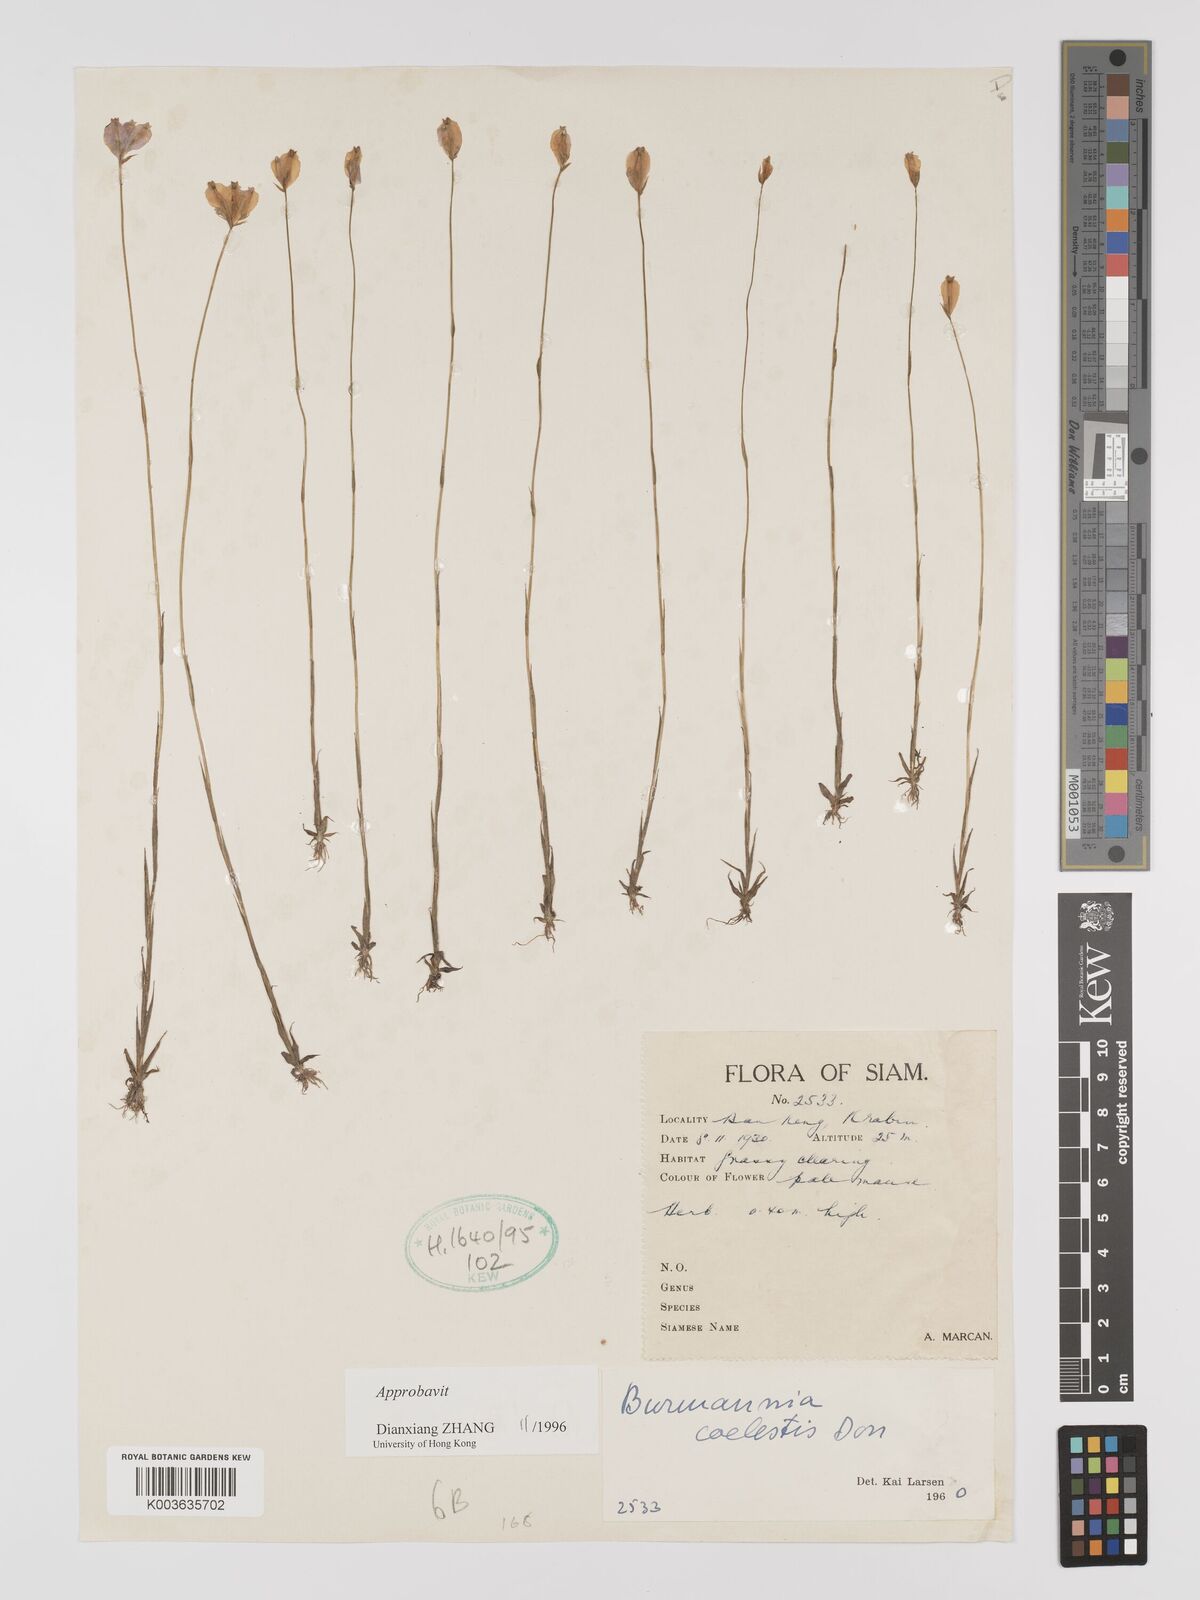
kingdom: Plantae
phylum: Tracheophyta
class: Liliopsida
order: Dioscoreales
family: Burmanniaceae
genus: Burmannia
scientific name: Burmannia coelestis
